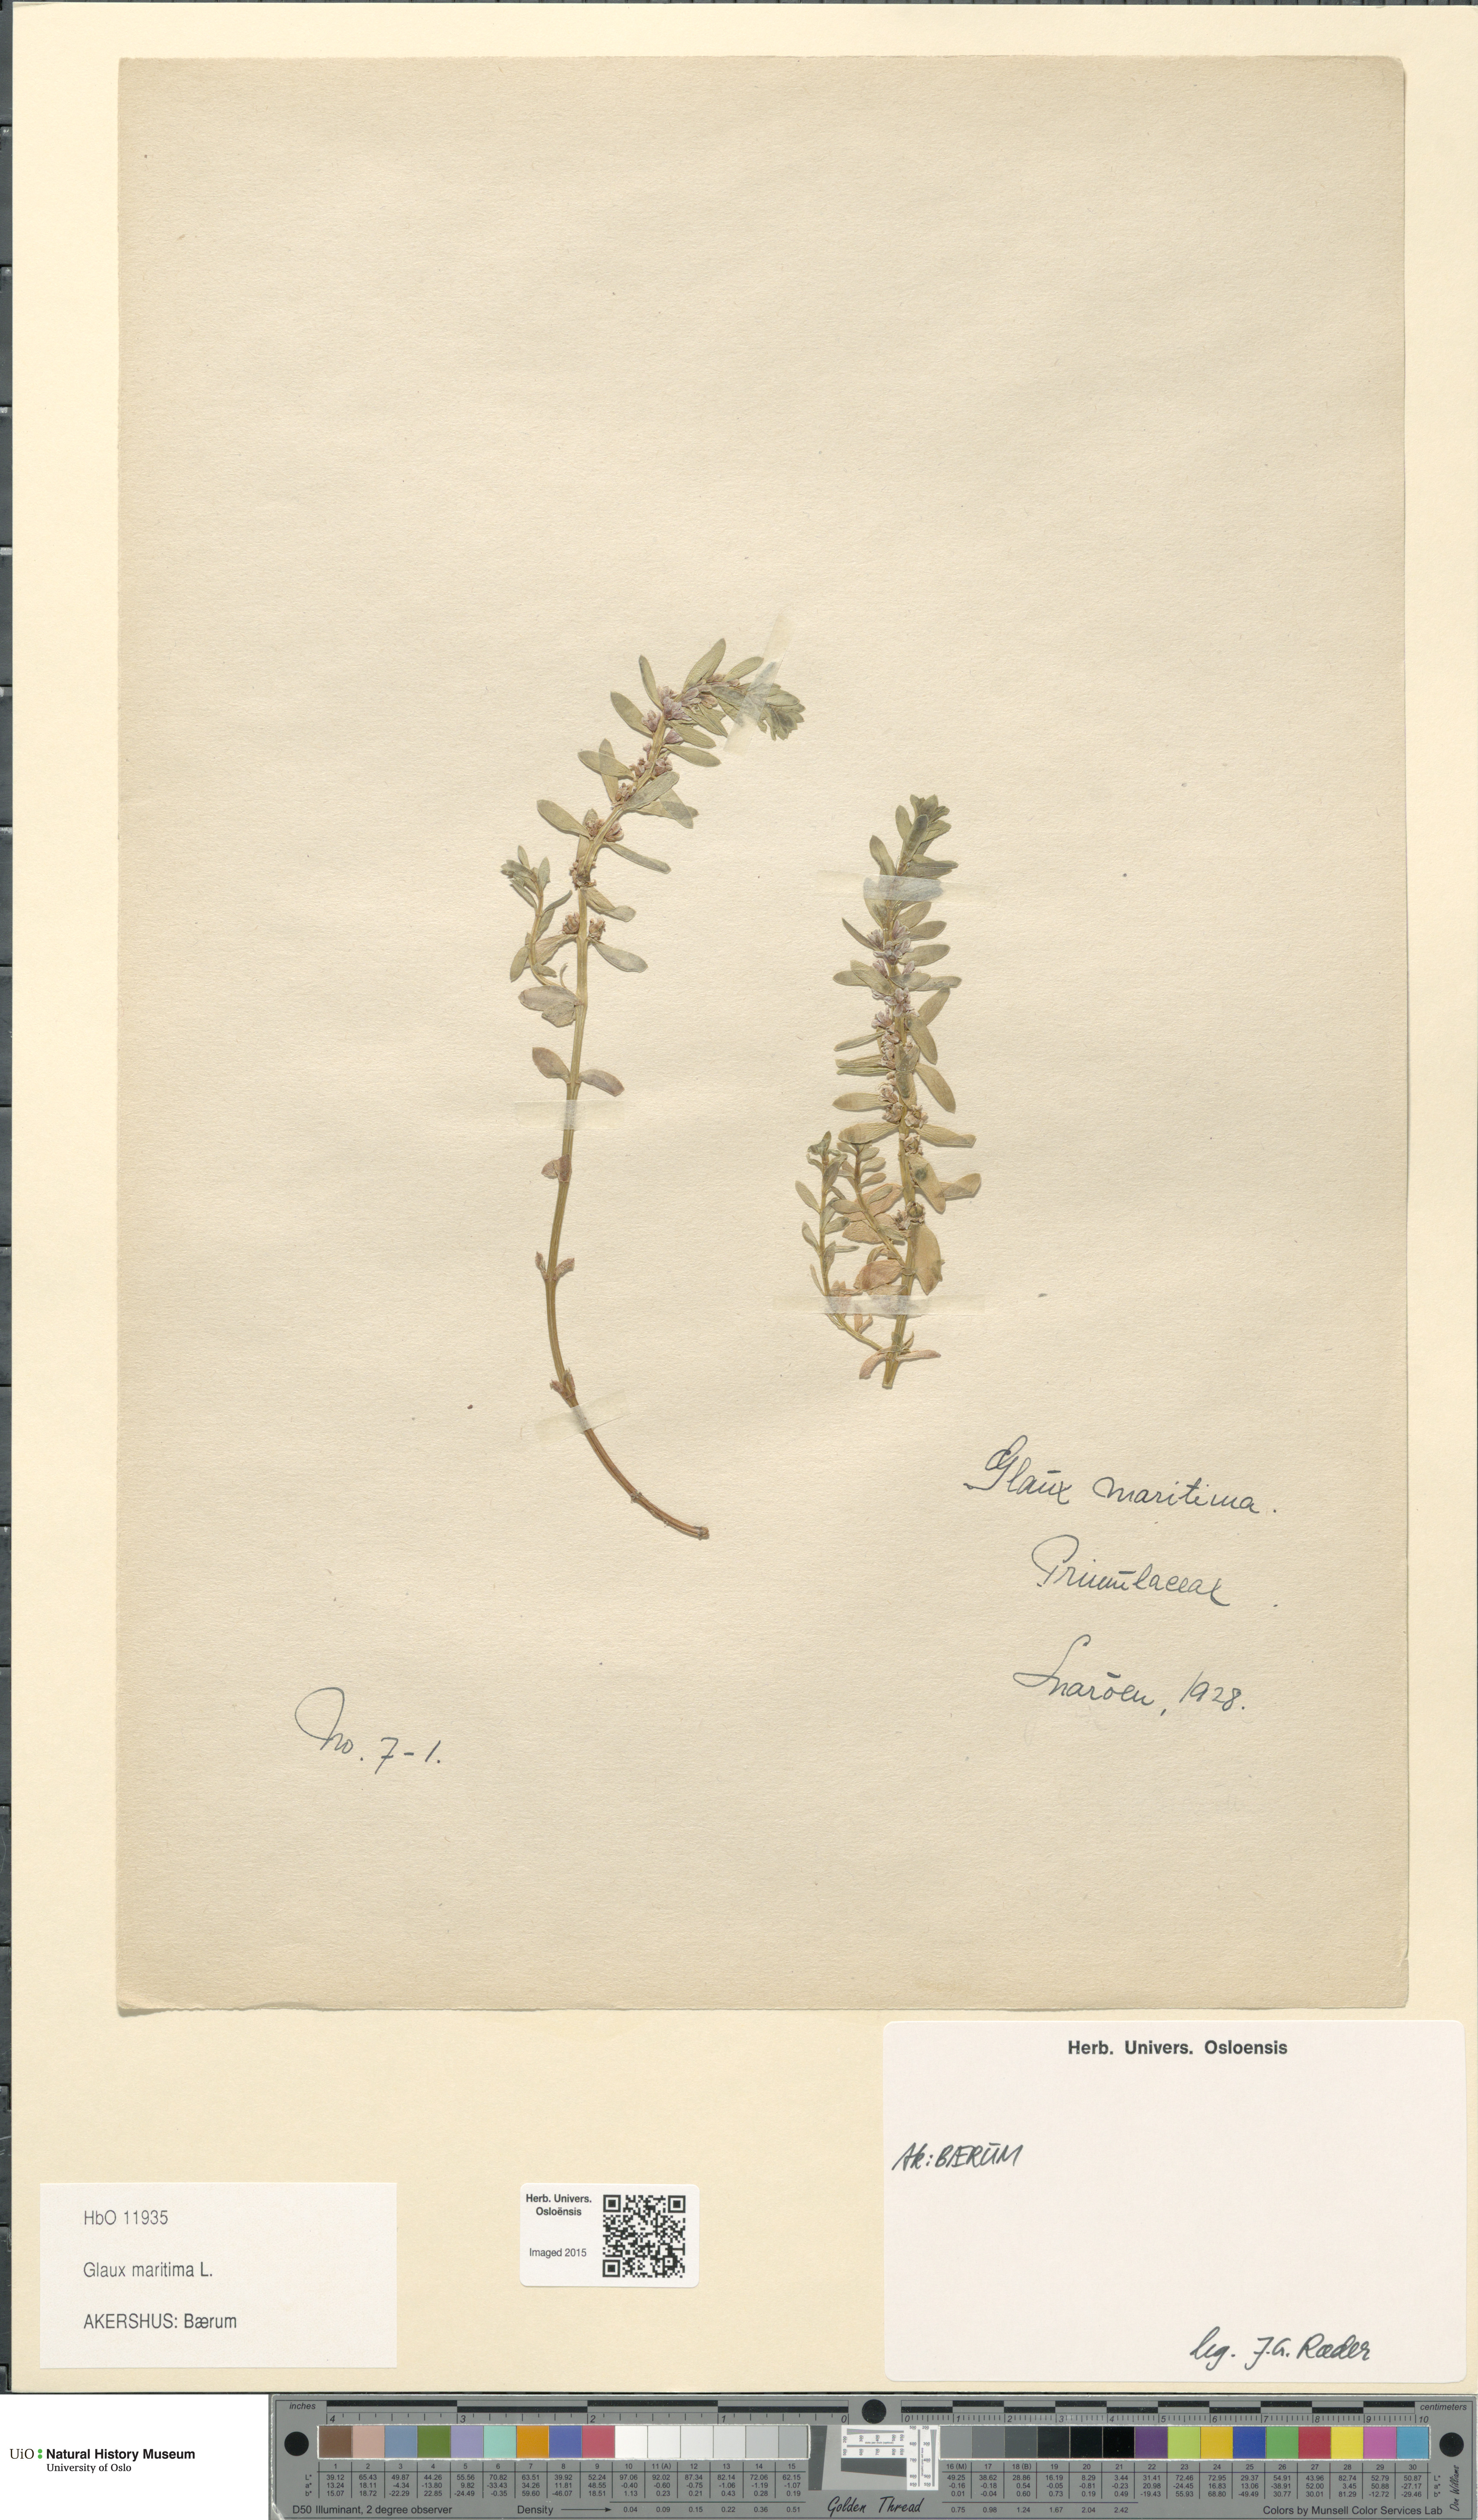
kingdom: Plantae
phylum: Tracheophyta
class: Magnoliopsida
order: Ericales
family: Primulaceae
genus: Lysimachia
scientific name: Lysimachia maritima
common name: Sea milkwort
